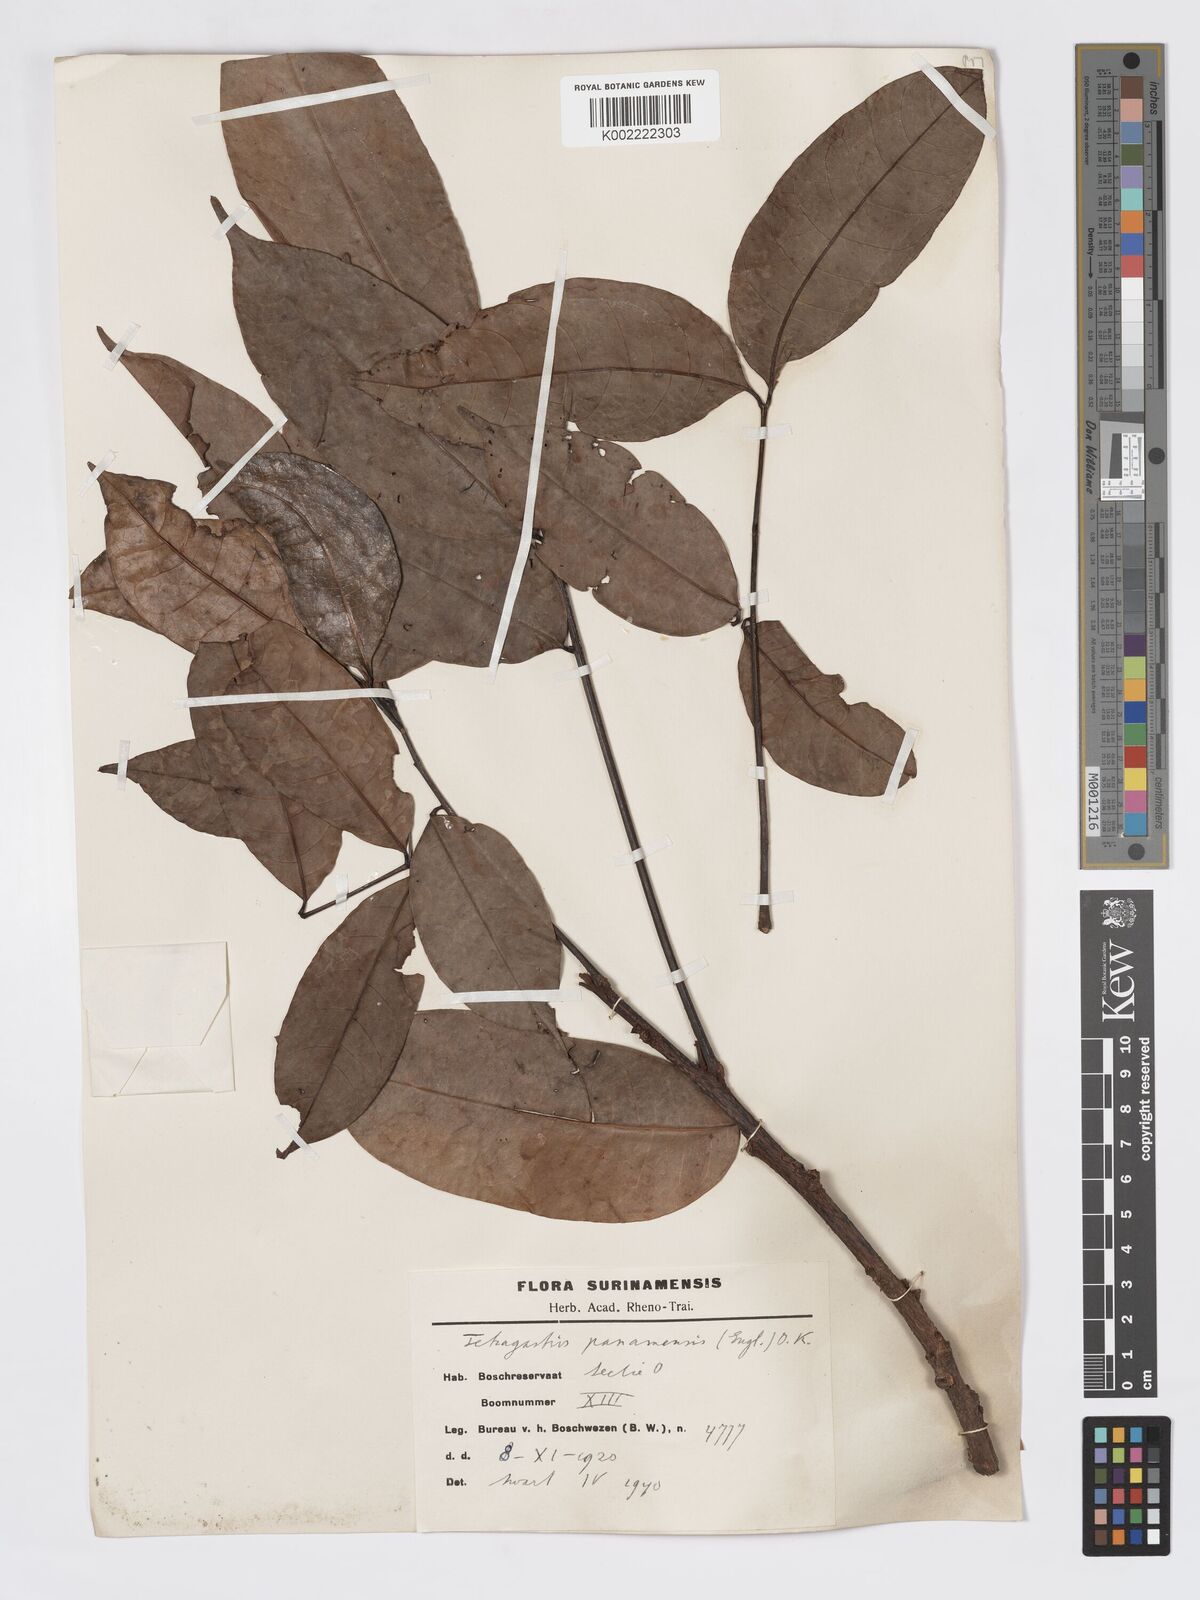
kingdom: Plantae
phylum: Tracheophyta
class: Magnoliopsida
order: Sapindales
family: Burseraceae
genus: Tetragastris
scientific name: Tetragastris panamensis
